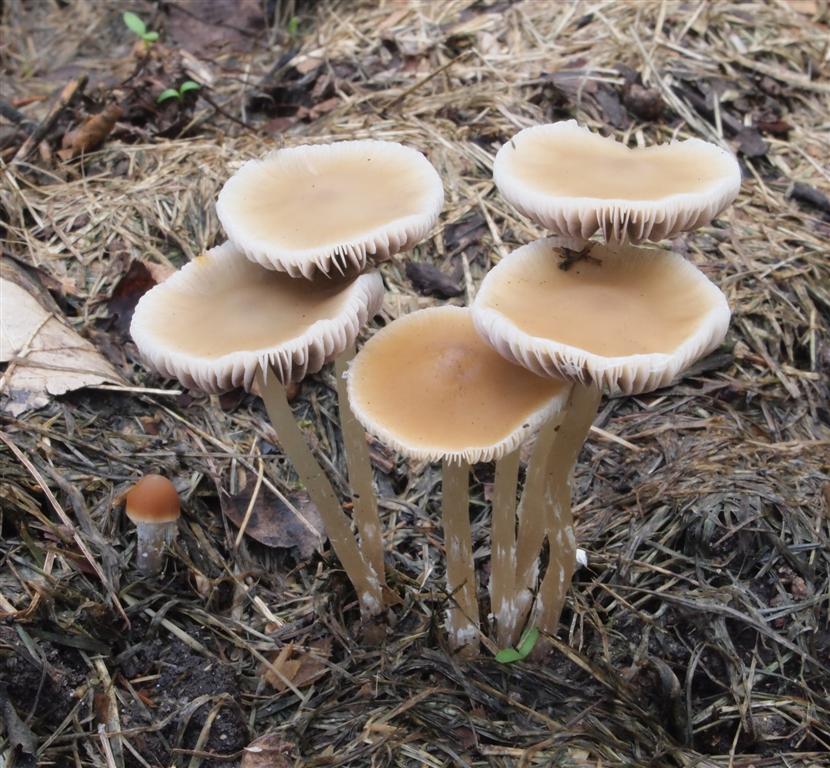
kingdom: Fungi
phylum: Basidiomycota
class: Agaricomycetes
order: Agaricales
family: Psathyrellaceae
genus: Psathyrella
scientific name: Psathyrella pseudogracilis
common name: slank mørkhat
